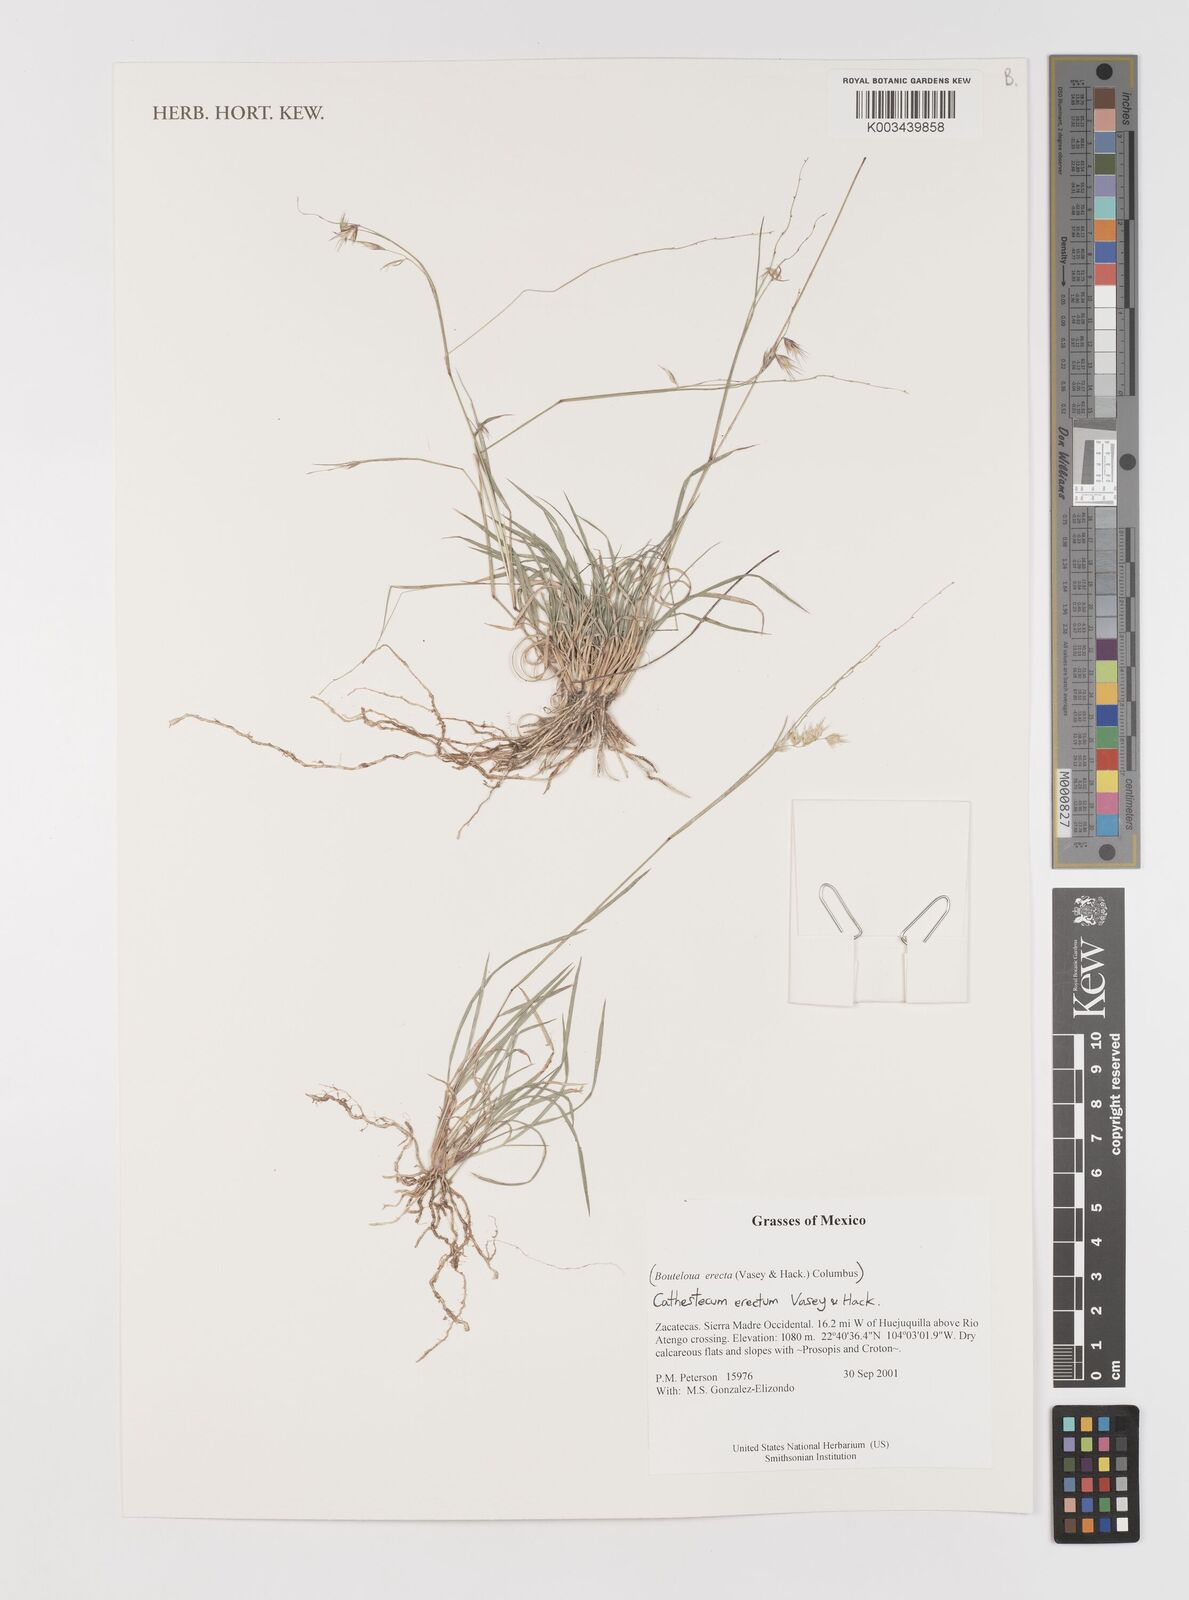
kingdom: Plantae
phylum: Tracheophyta
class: Liliopsida
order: Poales
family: Poaceae
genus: Bouteloua
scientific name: Bouteloua erecta
